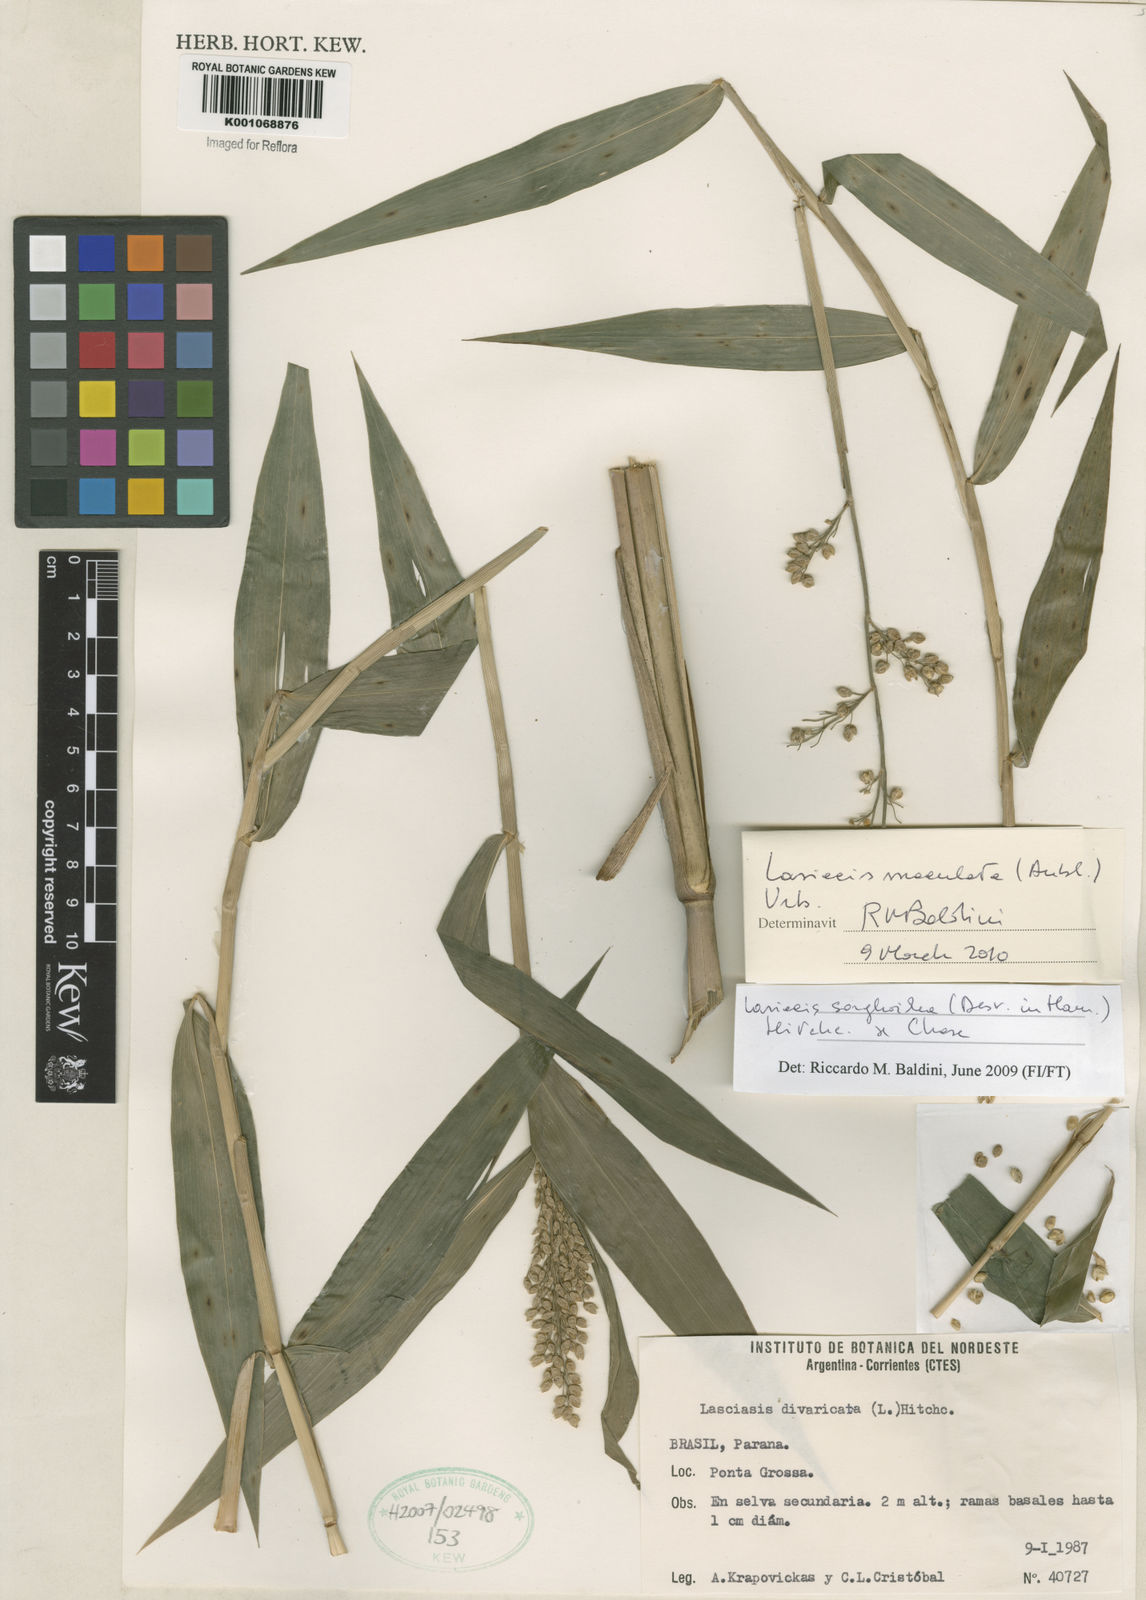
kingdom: Plantae
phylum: Tracheophyta
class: Liliopsida
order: Poales
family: Poaceae
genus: Lasiacis
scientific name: Lasiacis maculata
